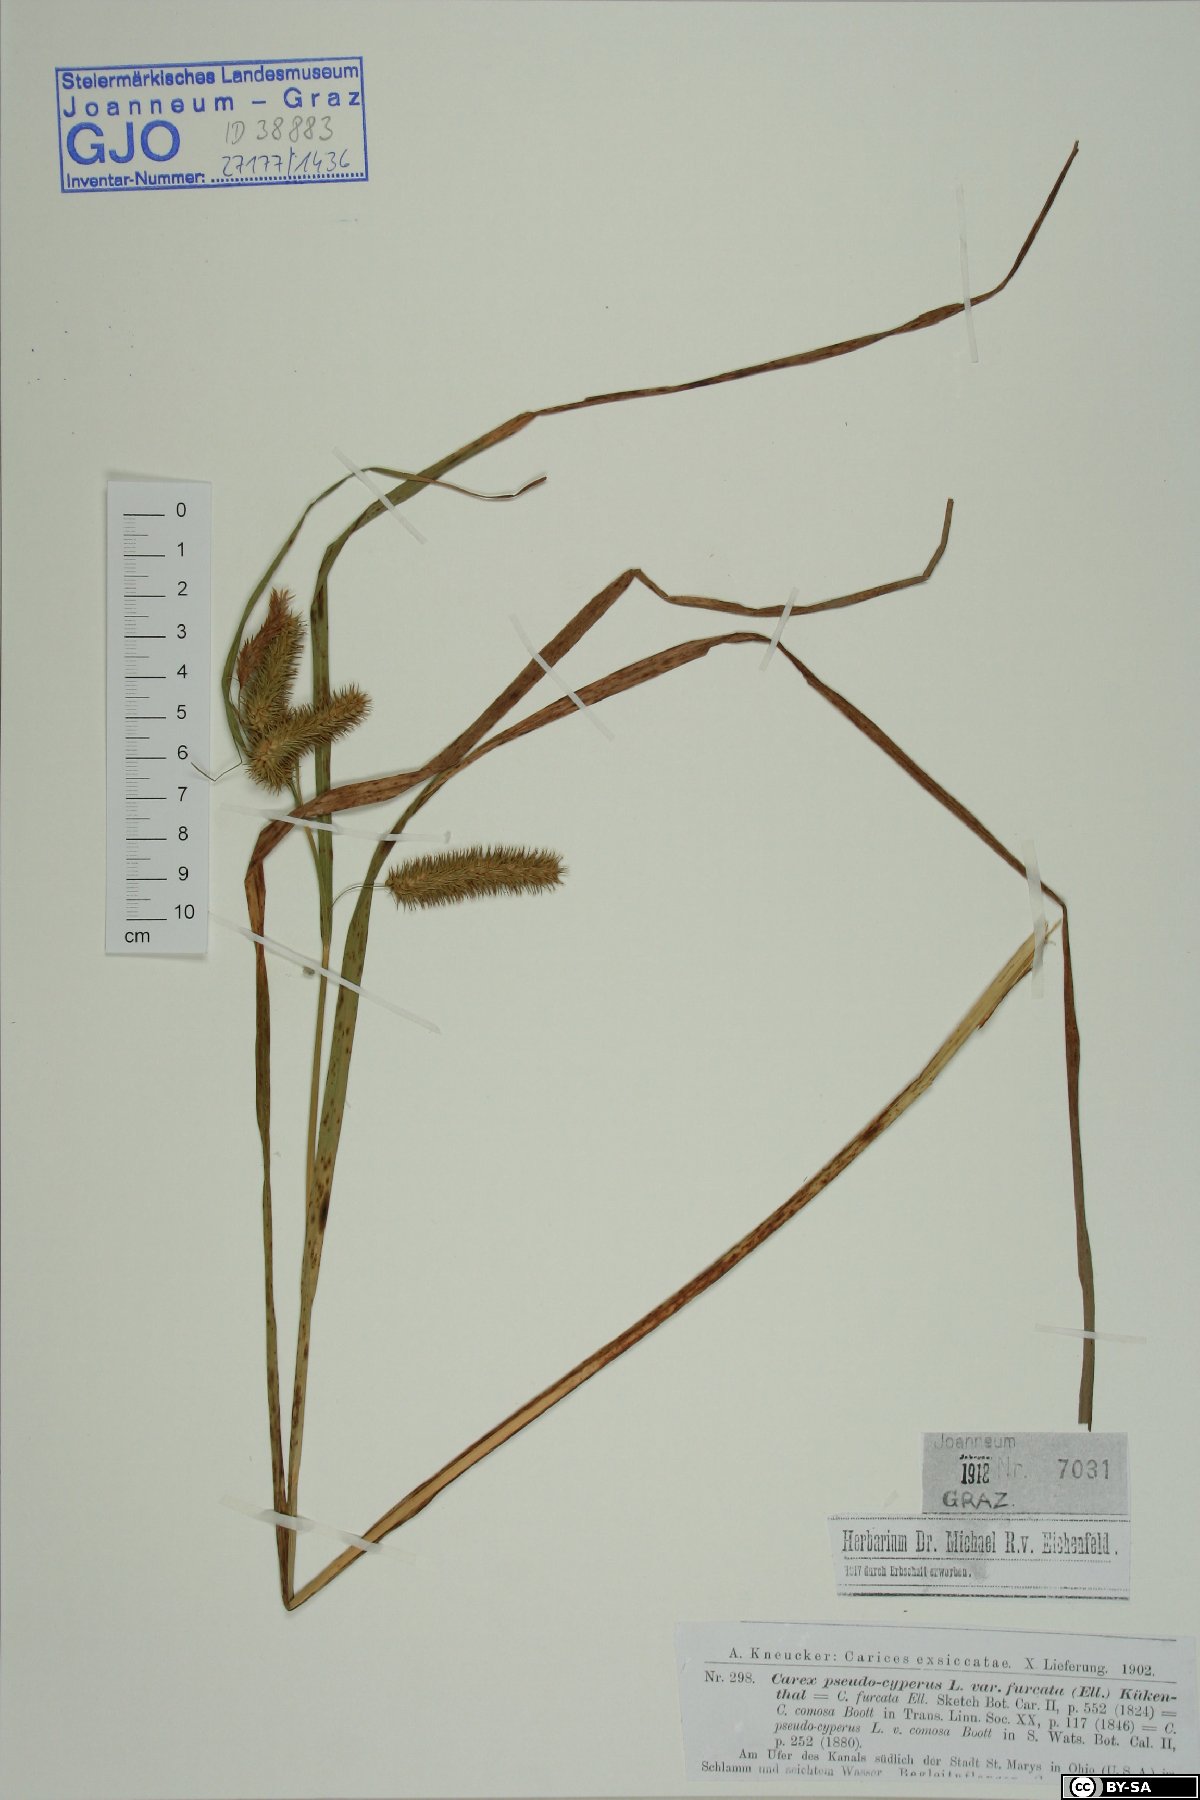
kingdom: Plantae
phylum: Tracheophyta
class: Liliopsida
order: Poales
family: Cyperaceae
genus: Carex
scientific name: Carex pseudocyperus
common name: Cyperus sedge
